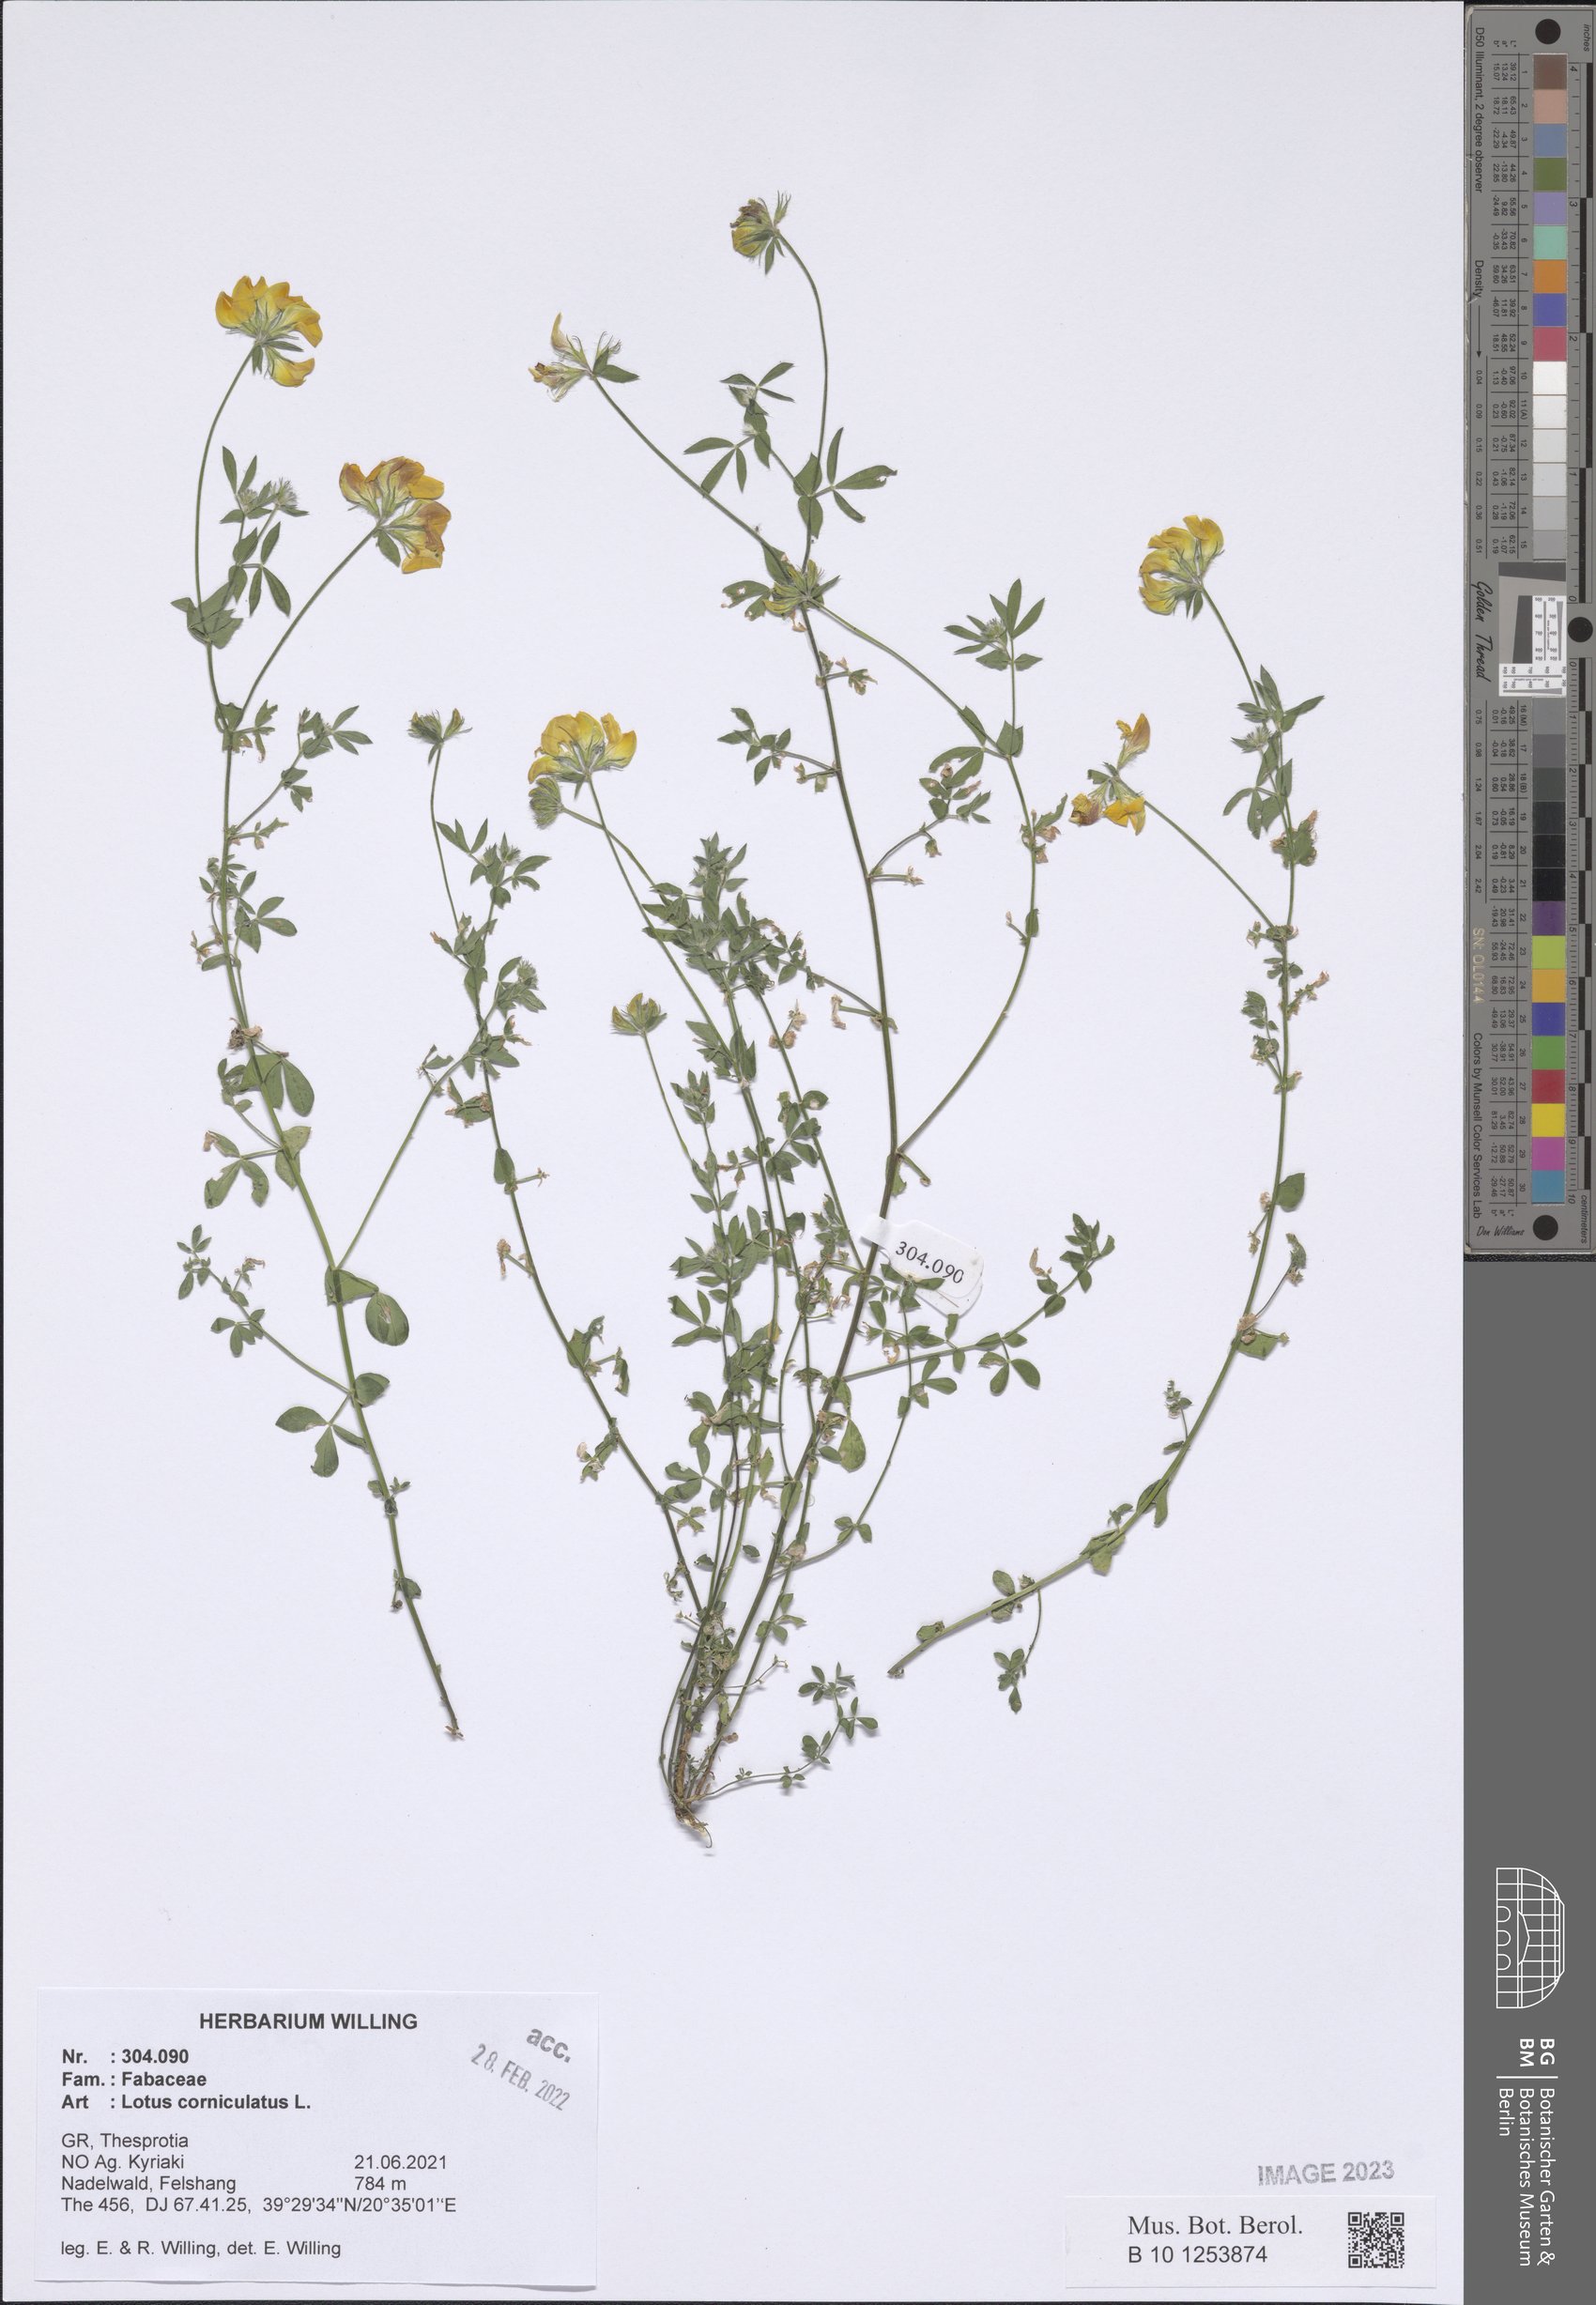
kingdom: Plantae
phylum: Tracheophyta
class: Magnoliopsida
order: Fabales
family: Fabaceae
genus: Lotus
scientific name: Lotus corniculatus
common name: Common bird's-foot-trefoil
